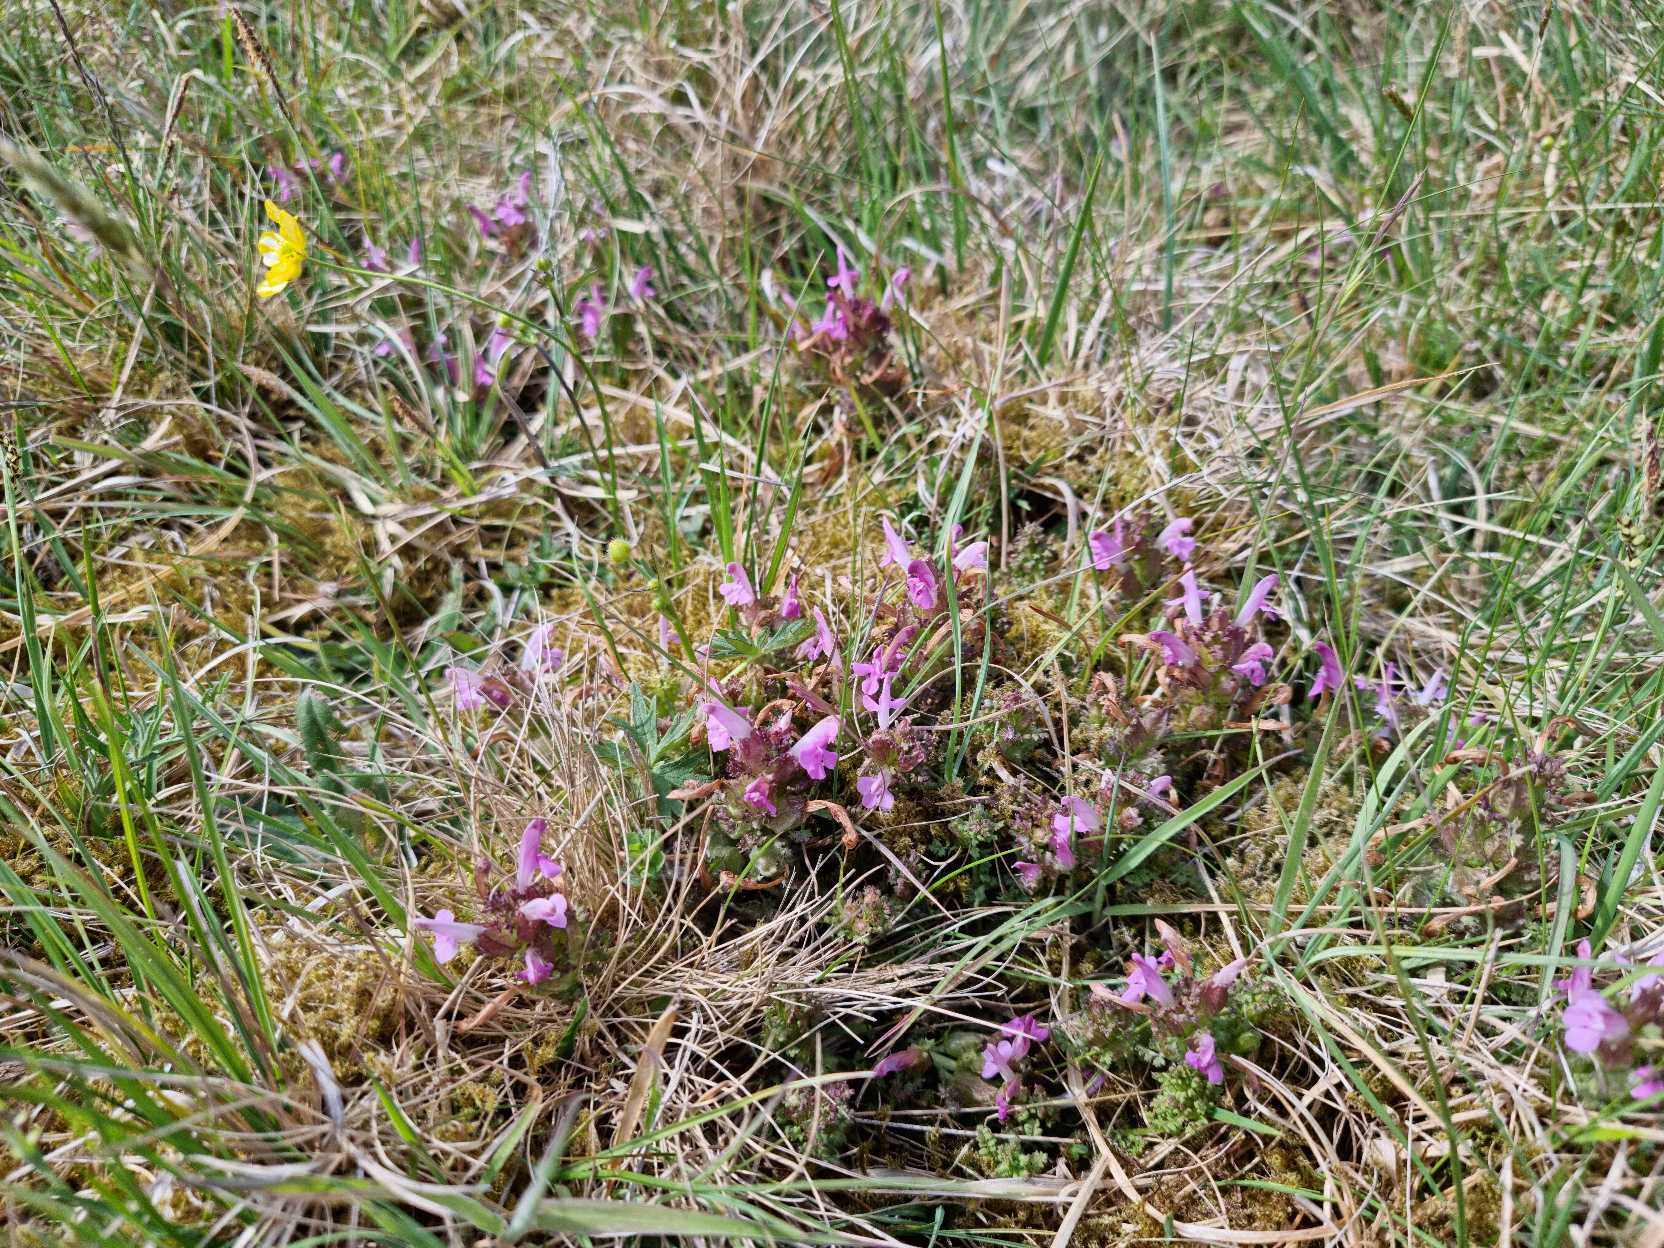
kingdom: Plantae
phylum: Tracheophyta
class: Magnoliopsida
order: Lamiales
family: Orobanchaceae
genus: Pedicularis
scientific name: Pedicularis sylvatica
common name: Mose-troldurt
